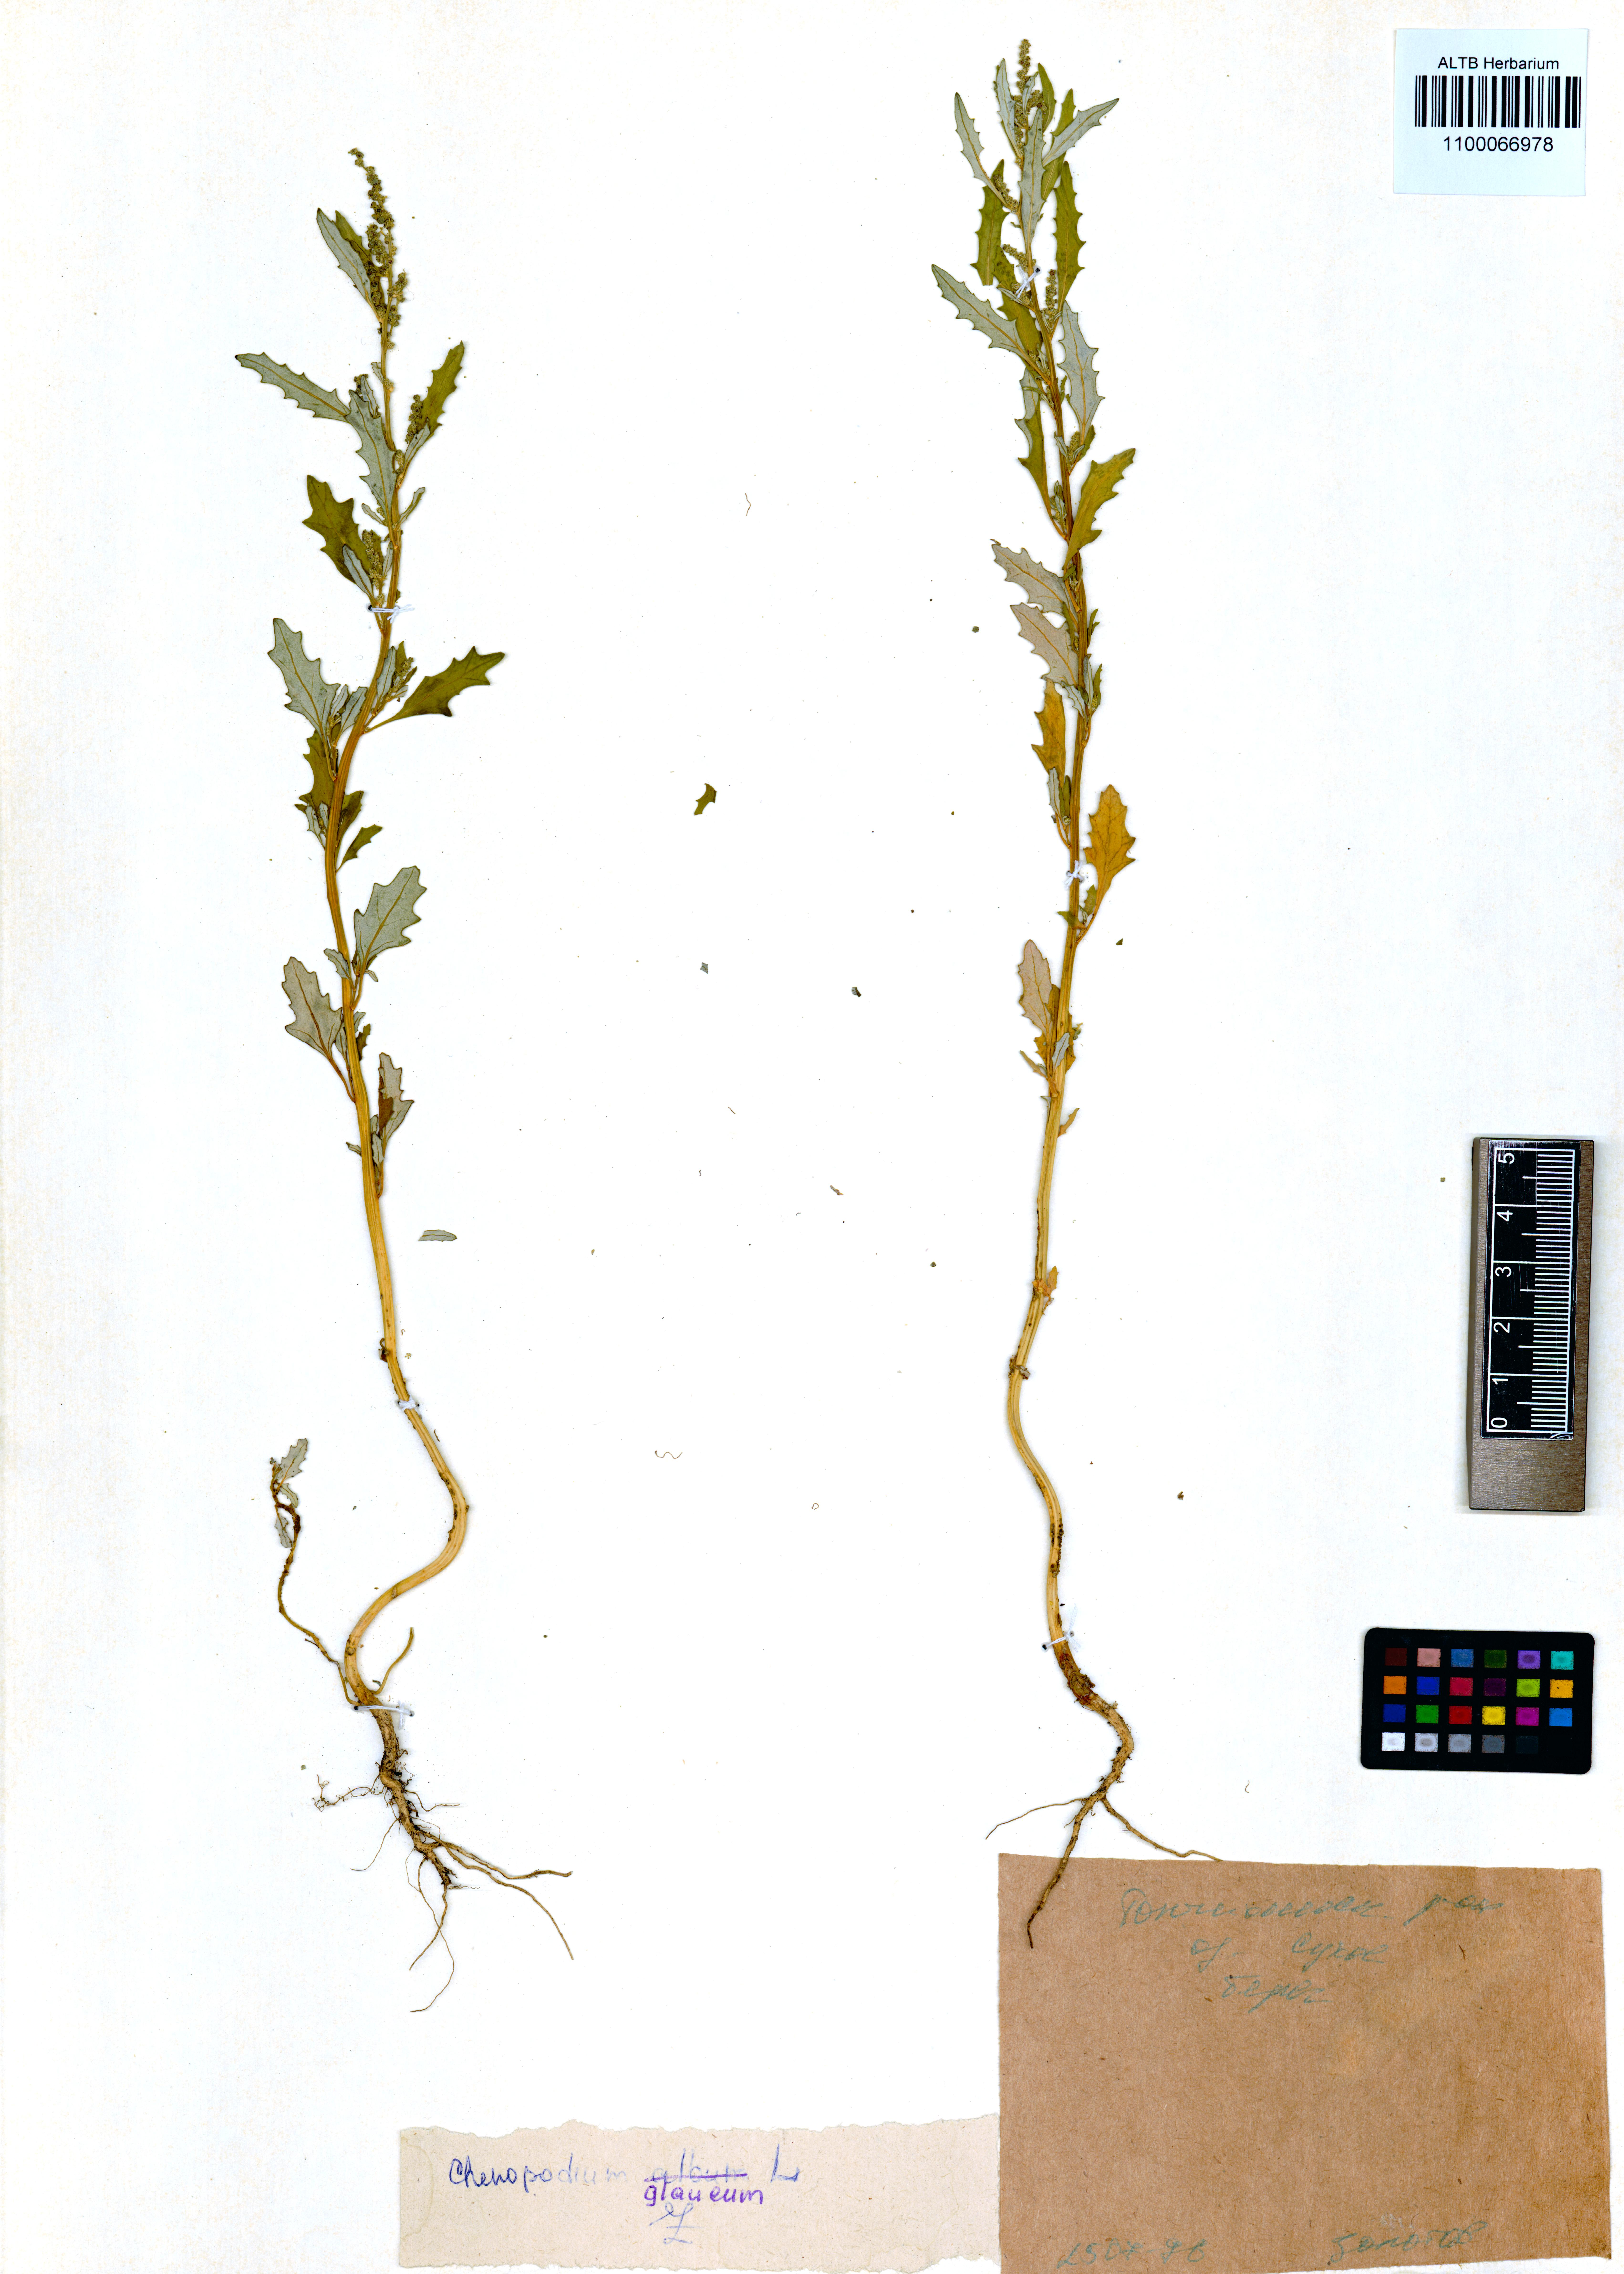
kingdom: Plantae
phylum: Tracheophyta
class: Magnoliopsida
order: Caryophyllales
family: Amaranthaceae
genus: Oxybasis
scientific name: Oxybasis glauca
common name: Glaucous goosefoot
